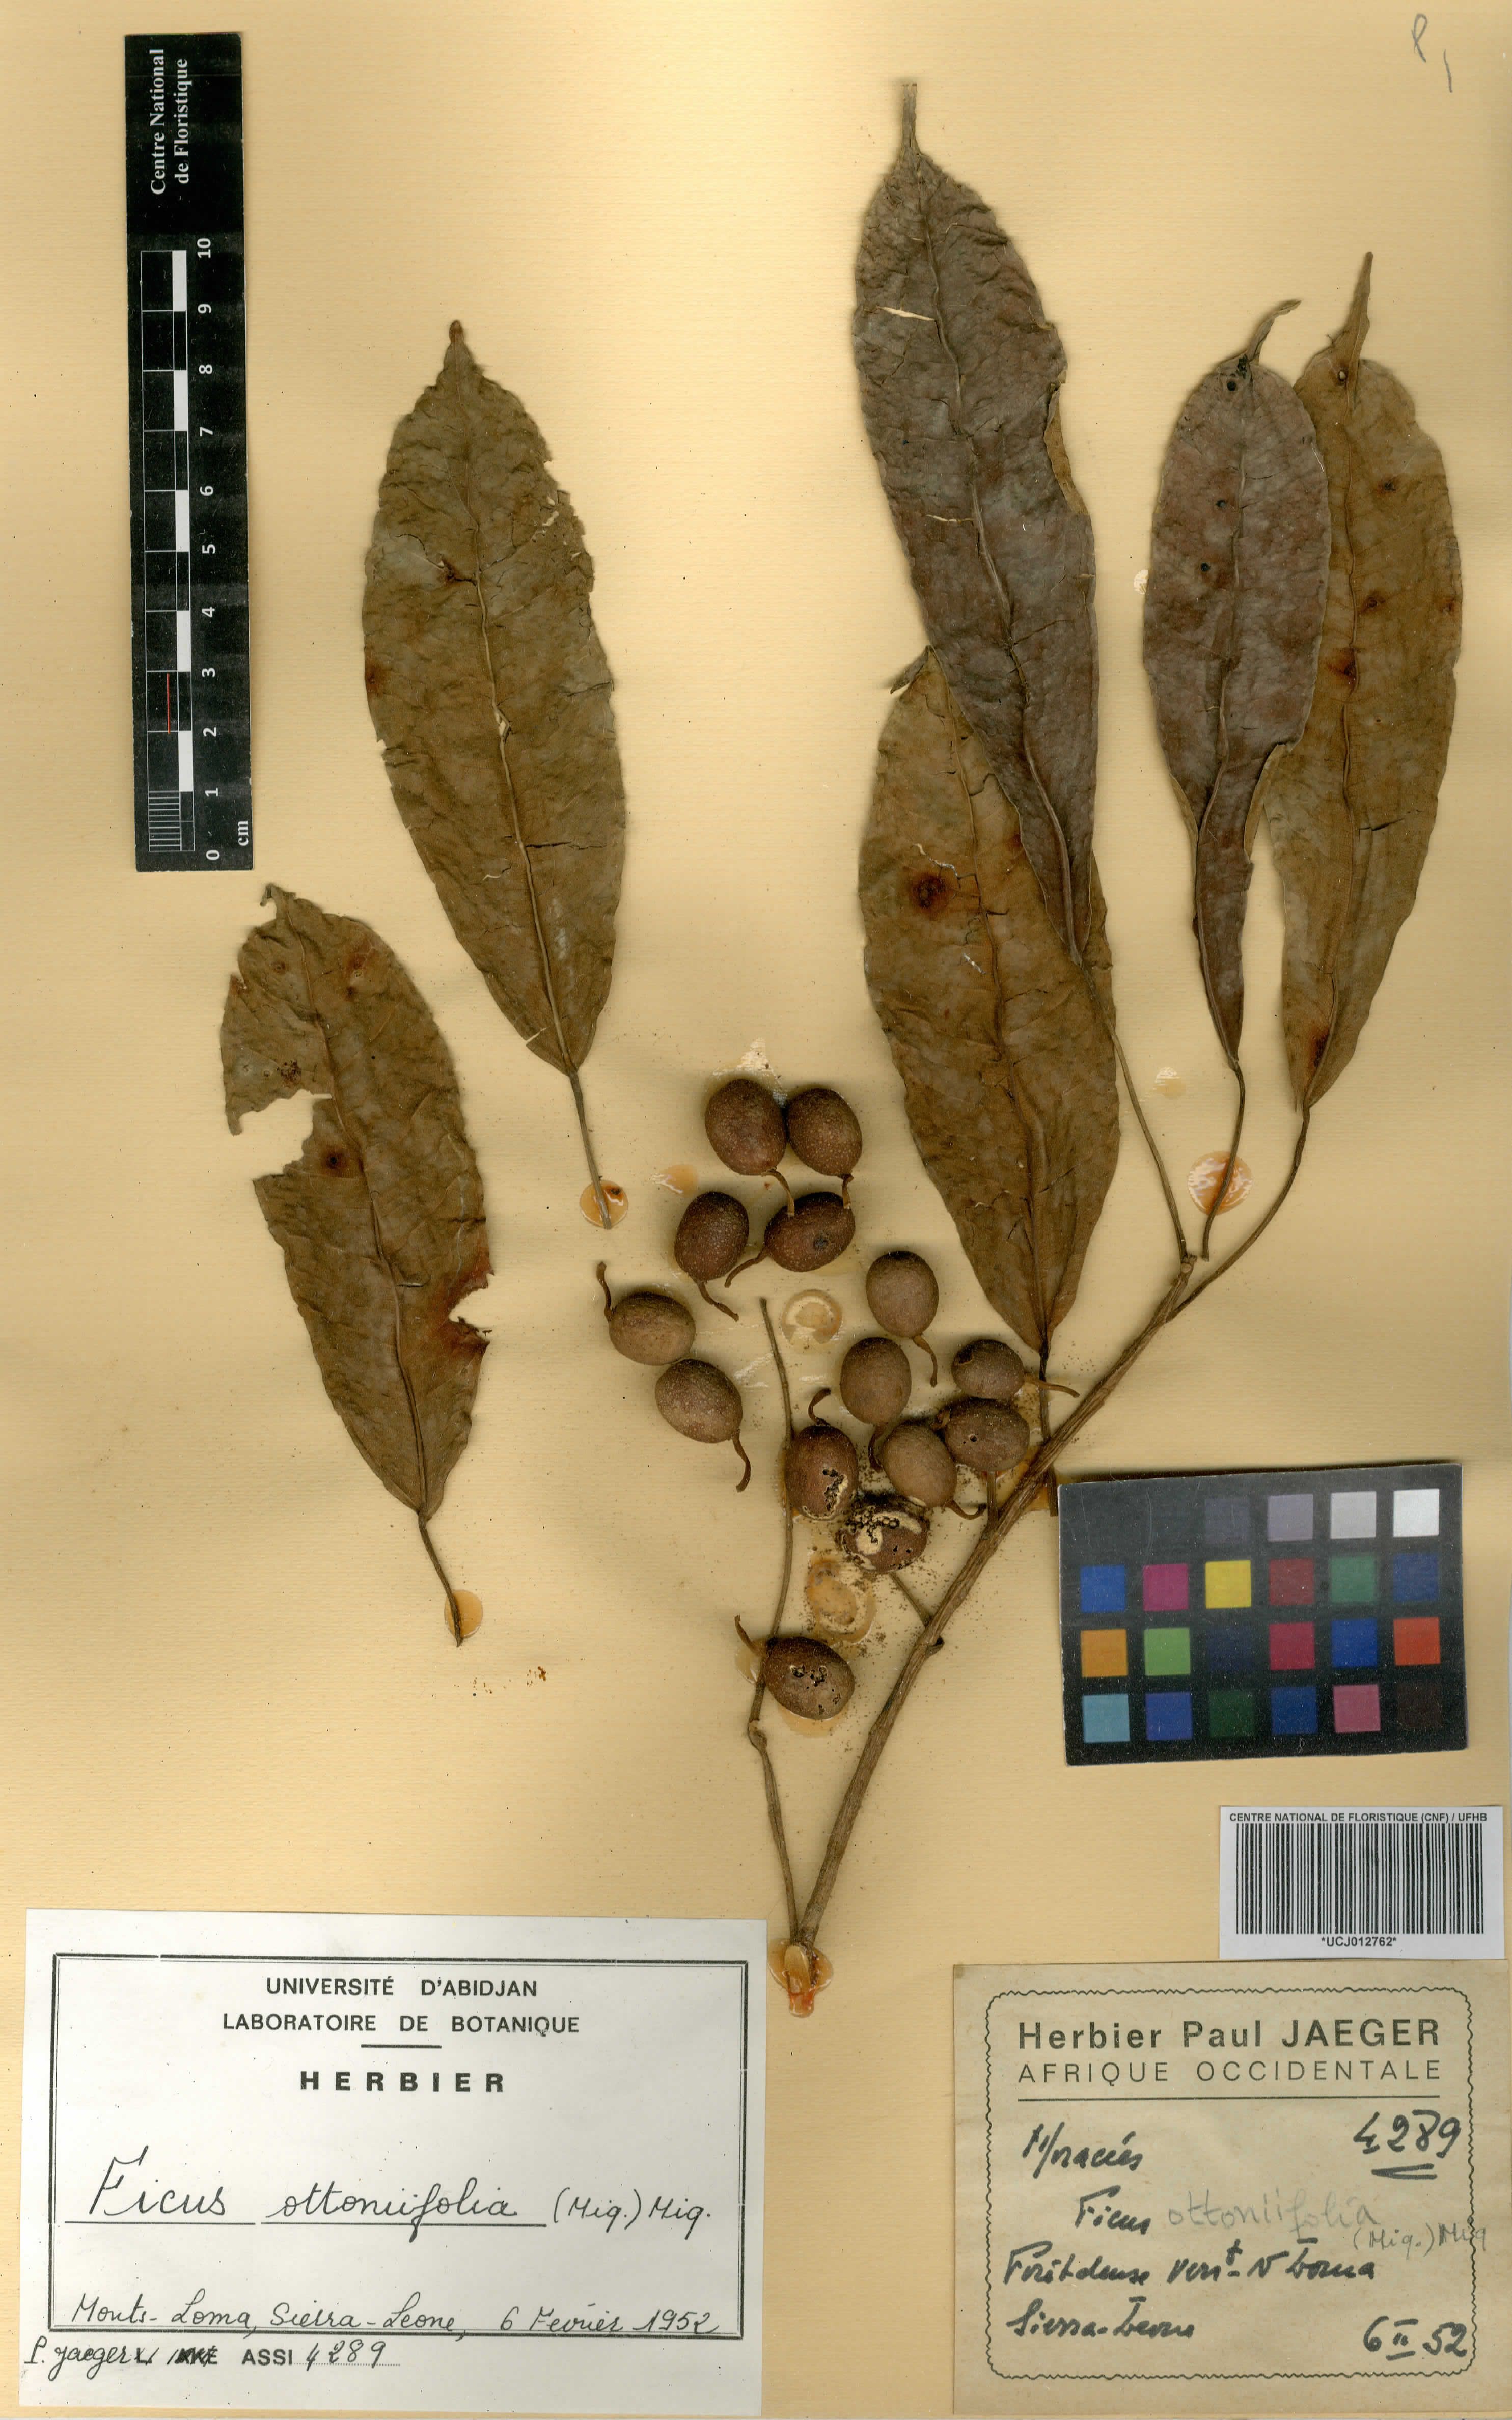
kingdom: Plantae
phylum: Tracheophyta
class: Magnoliopsida
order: Rosales
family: Moraceae
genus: Ficus
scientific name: Ficus ottoniifolia
